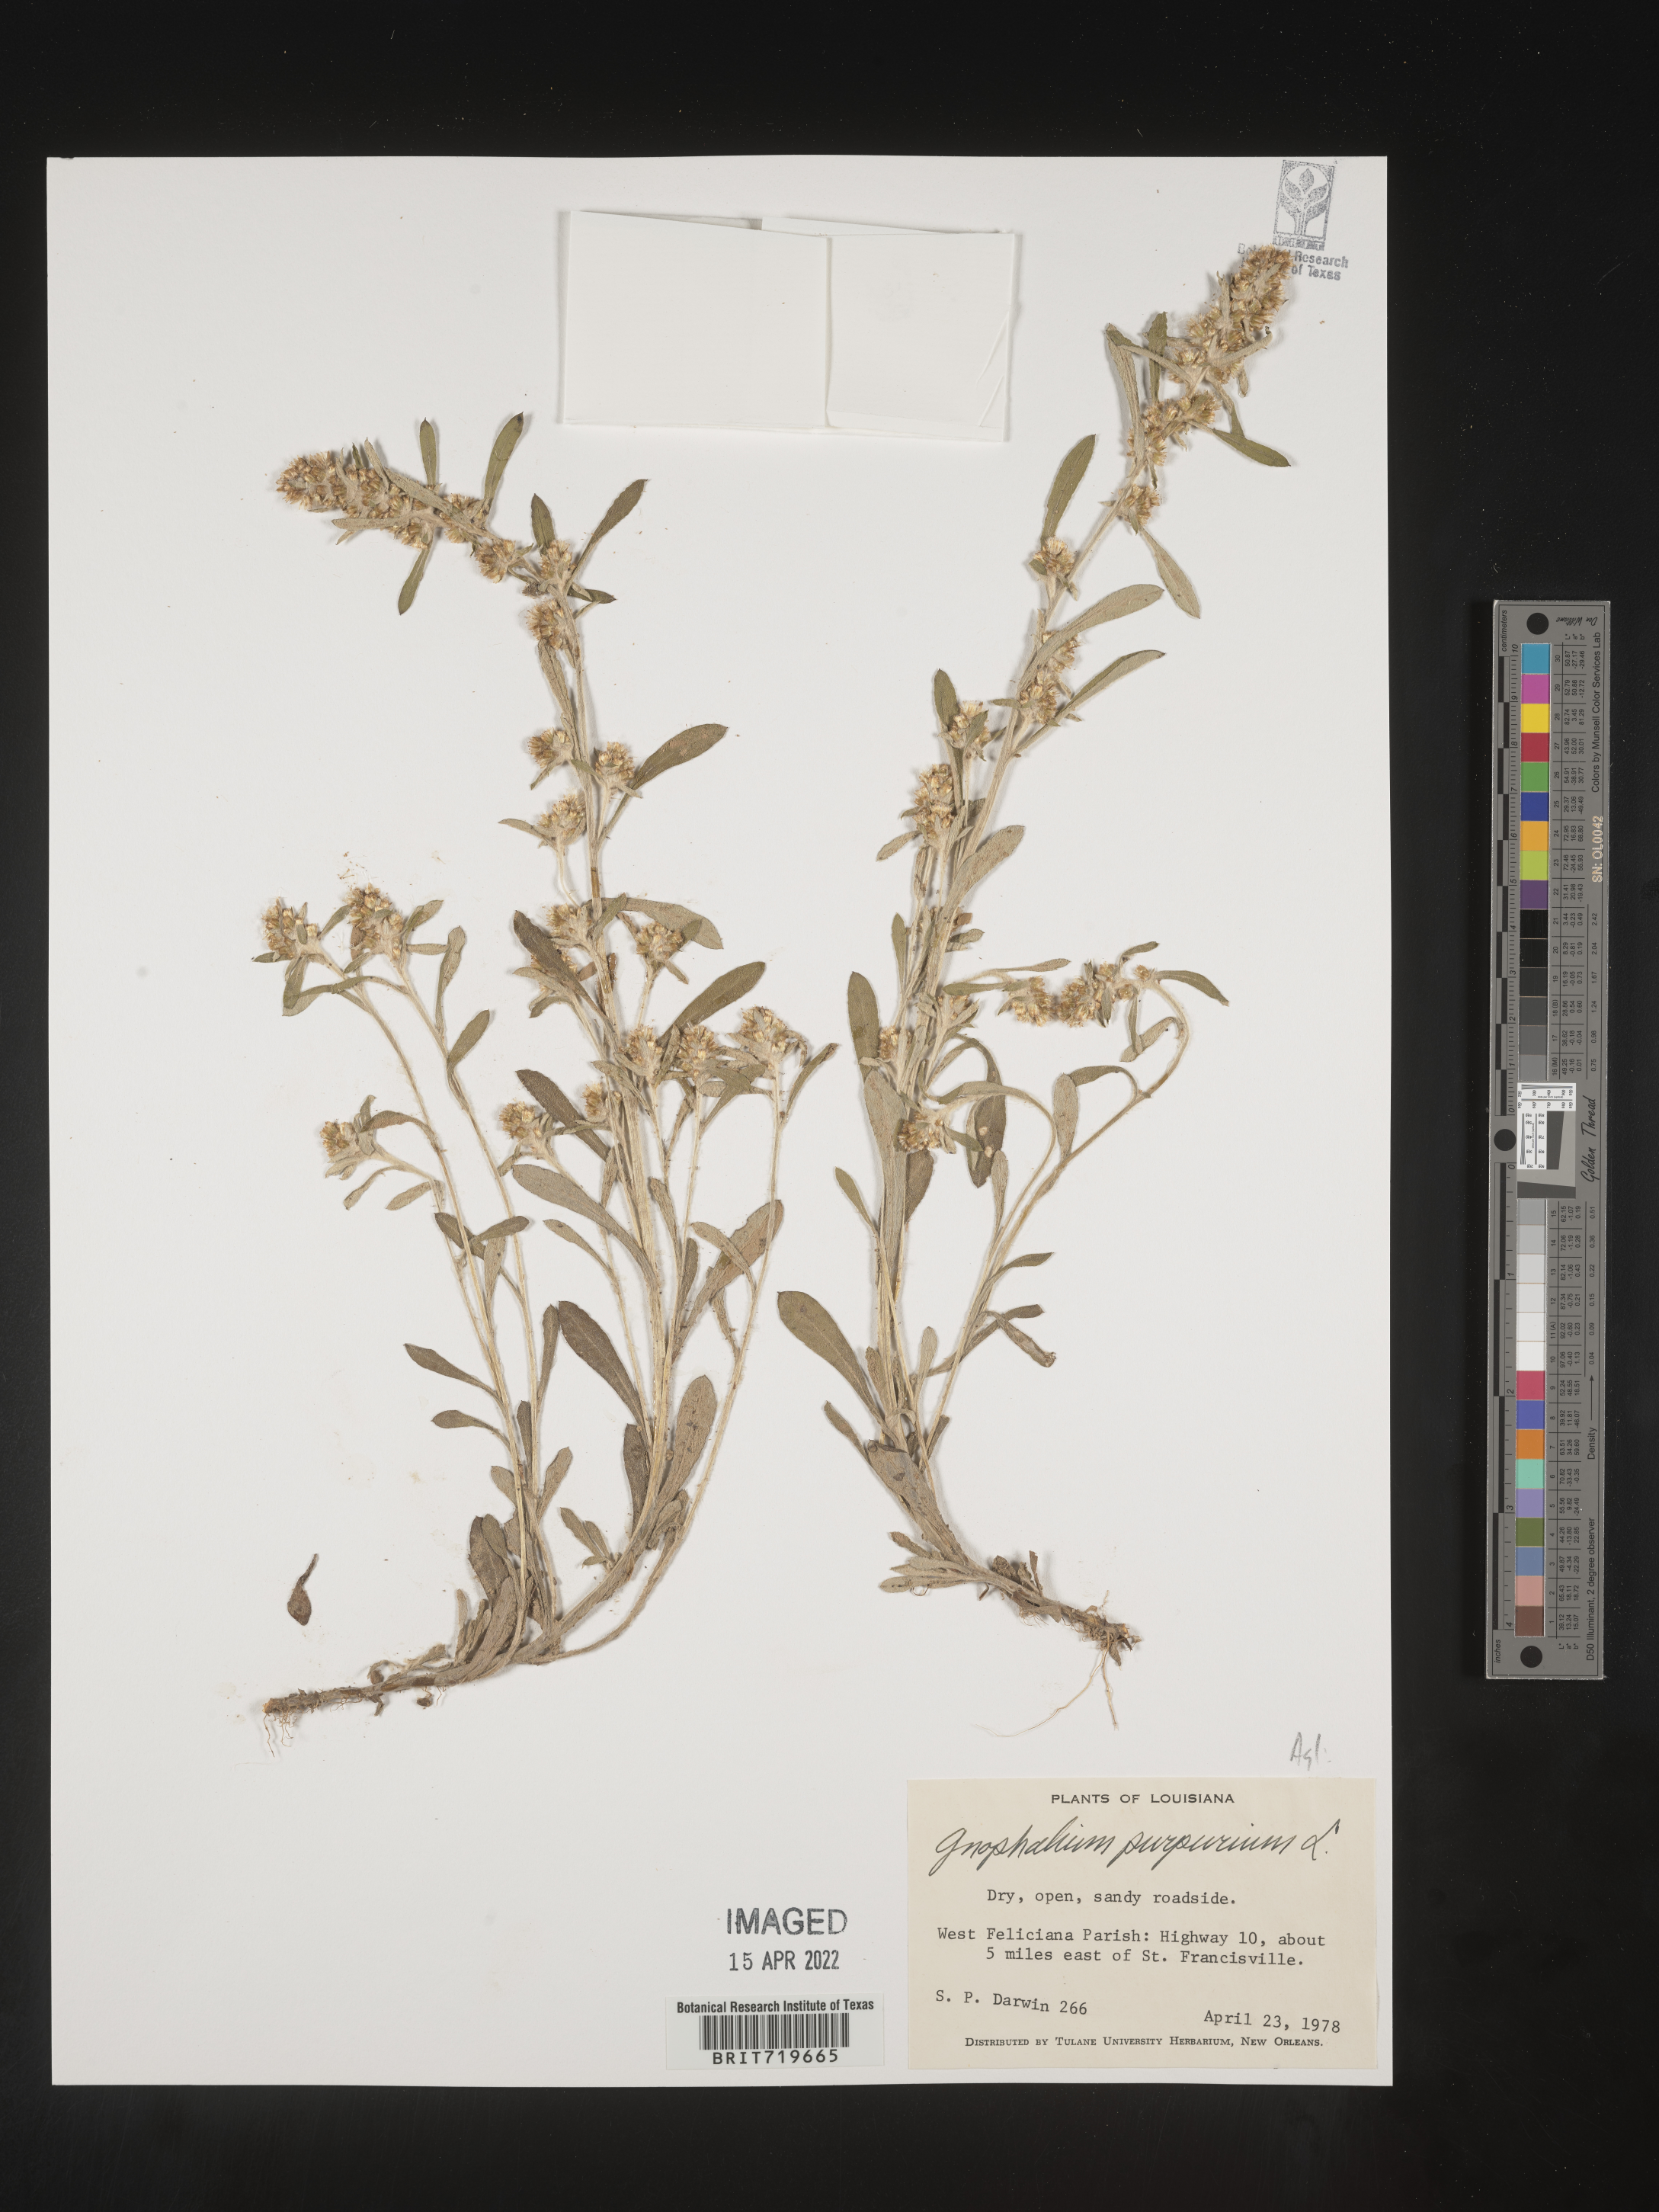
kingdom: Plantae
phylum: Tracheophyta
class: Magnoliopsida
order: Asterales
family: Asteraceae
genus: Gamochaeta
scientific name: Gamochaeta pensylvanica
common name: Pennsylvania everlasting
